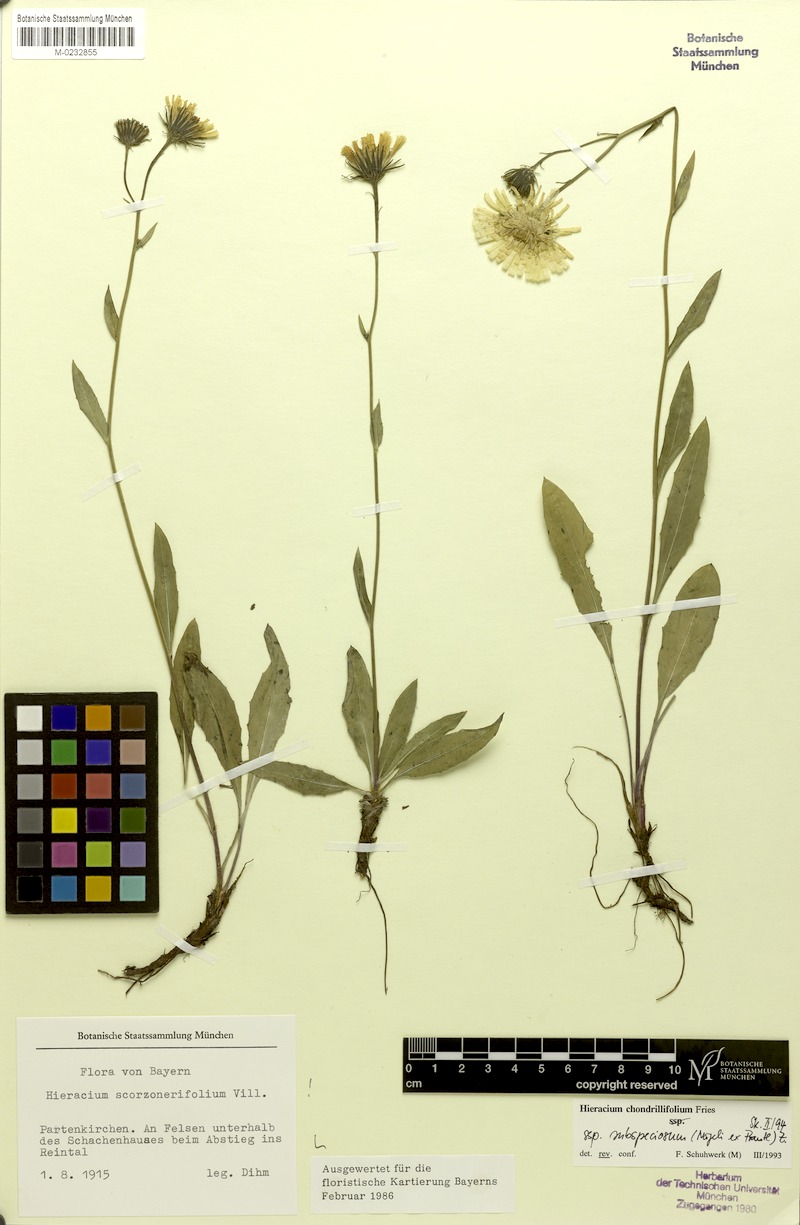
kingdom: Plantae
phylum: Tracheophyta
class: Magnoliopsida
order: Asterales
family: Asteraceae
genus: Hieracium
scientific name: Hieracium subspeciosum
